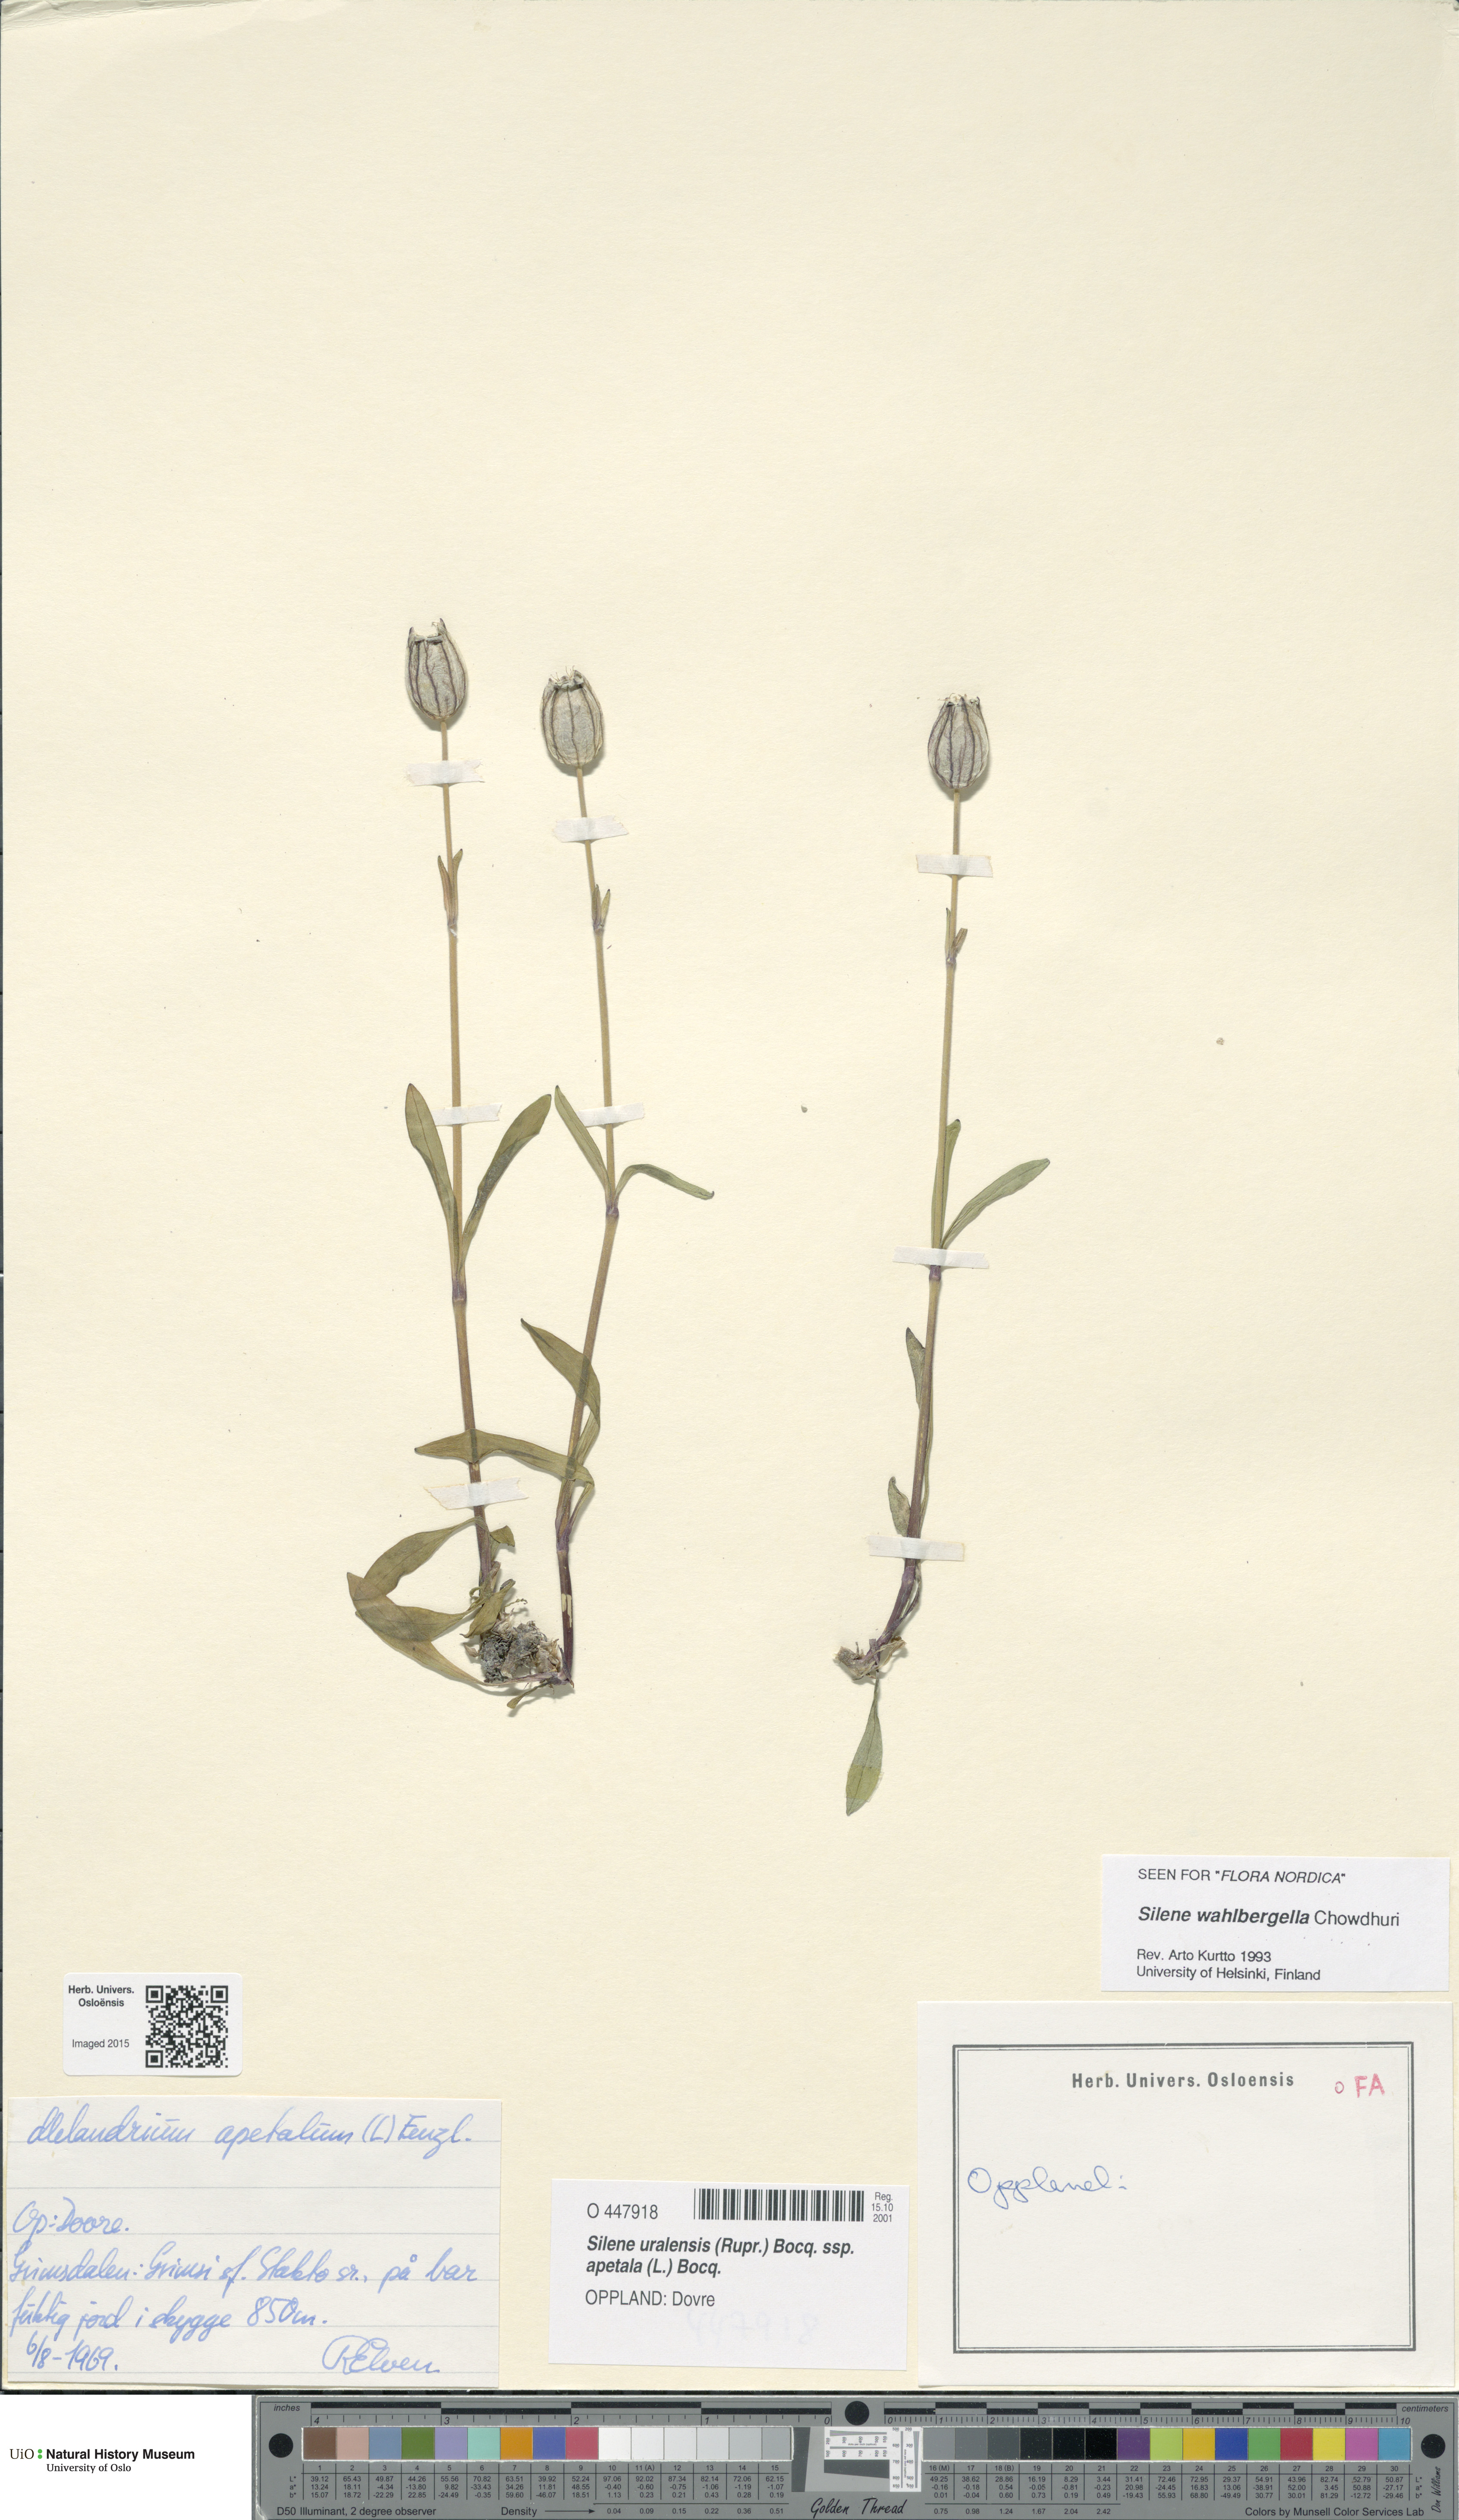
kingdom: Plantae
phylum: Tracheophyta
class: Magnoliopsida
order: Caryophyllales
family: Caryophyllaceae
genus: Silene
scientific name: Silene wahlbergella
